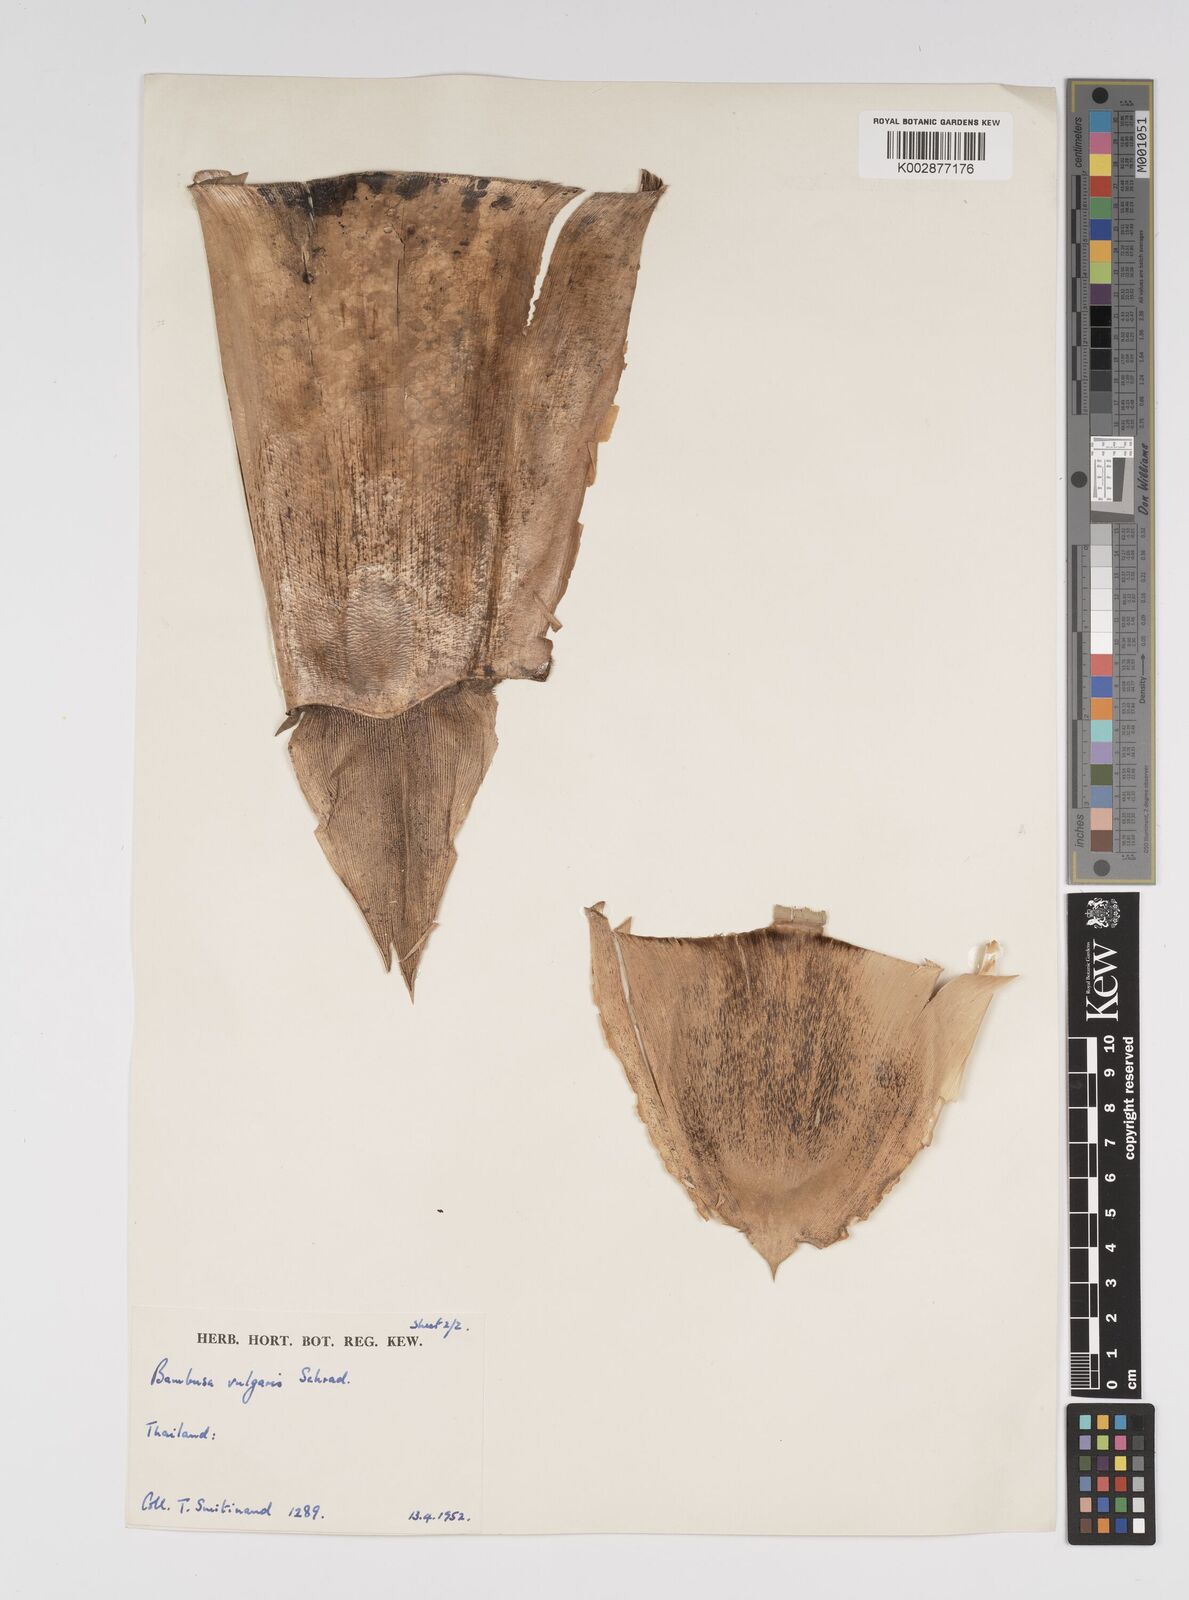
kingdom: Plantae
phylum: Tracheophyta
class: Liliopsida
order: Poales
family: Poaceae
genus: Bambusa
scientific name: Bambusa balcooa
